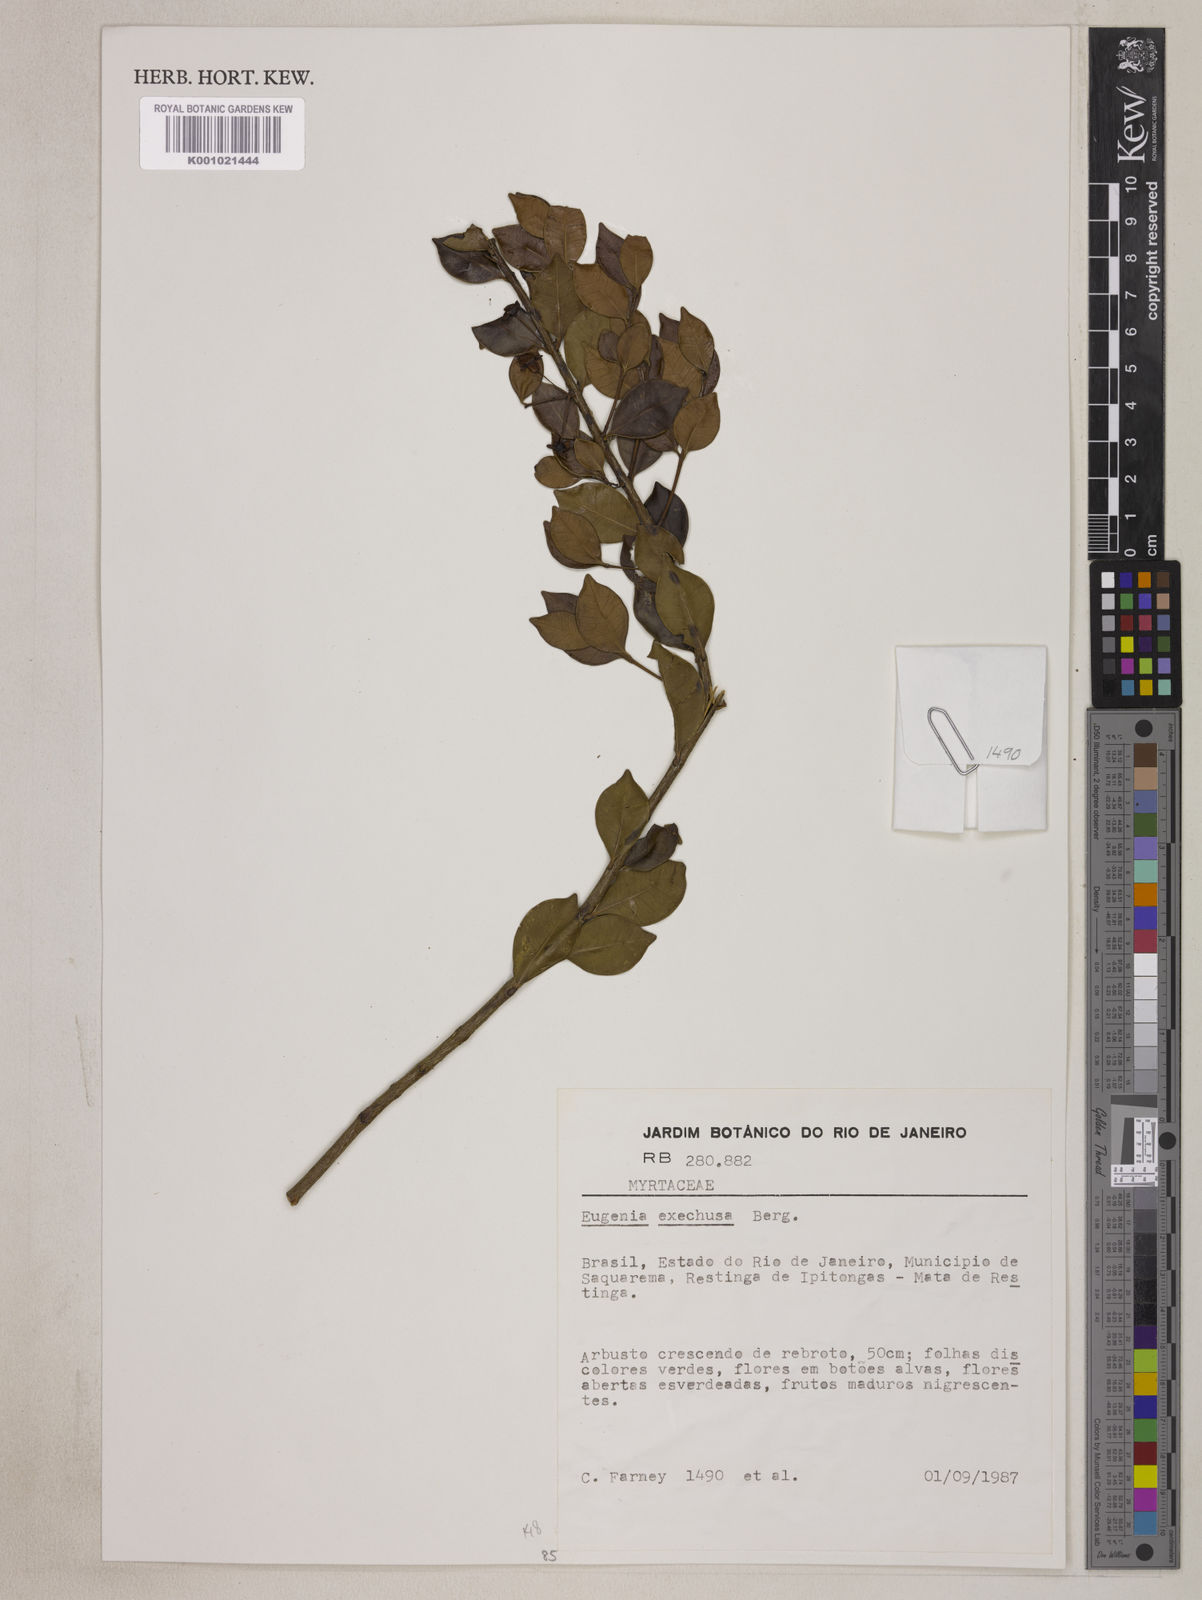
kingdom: Plantae
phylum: Tracheophyta
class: Magnoliopsida
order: Myrtales
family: Myrtaceae
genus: Eugenia
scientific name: Eugenia arenaria
